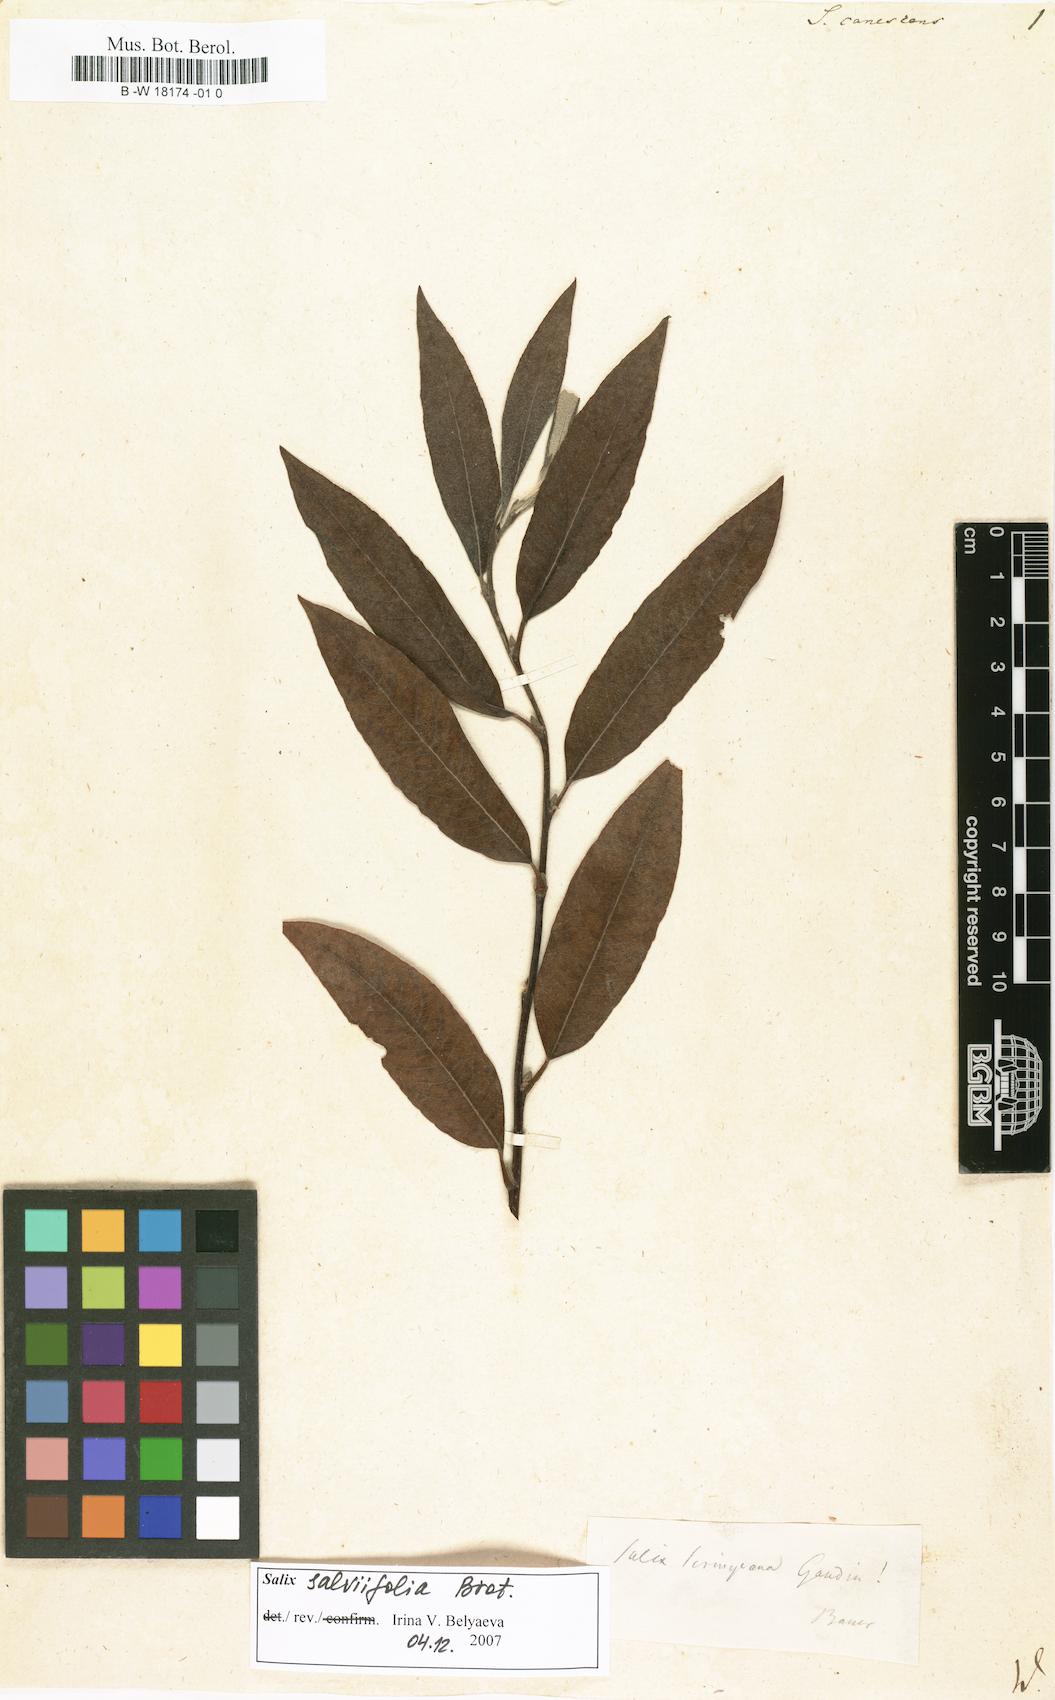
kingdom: Plantae
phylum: Tracheophyta
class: Magnoliopsida
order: Malpighiales
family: Salicaceae
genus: Salix
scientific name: Salix canescens
